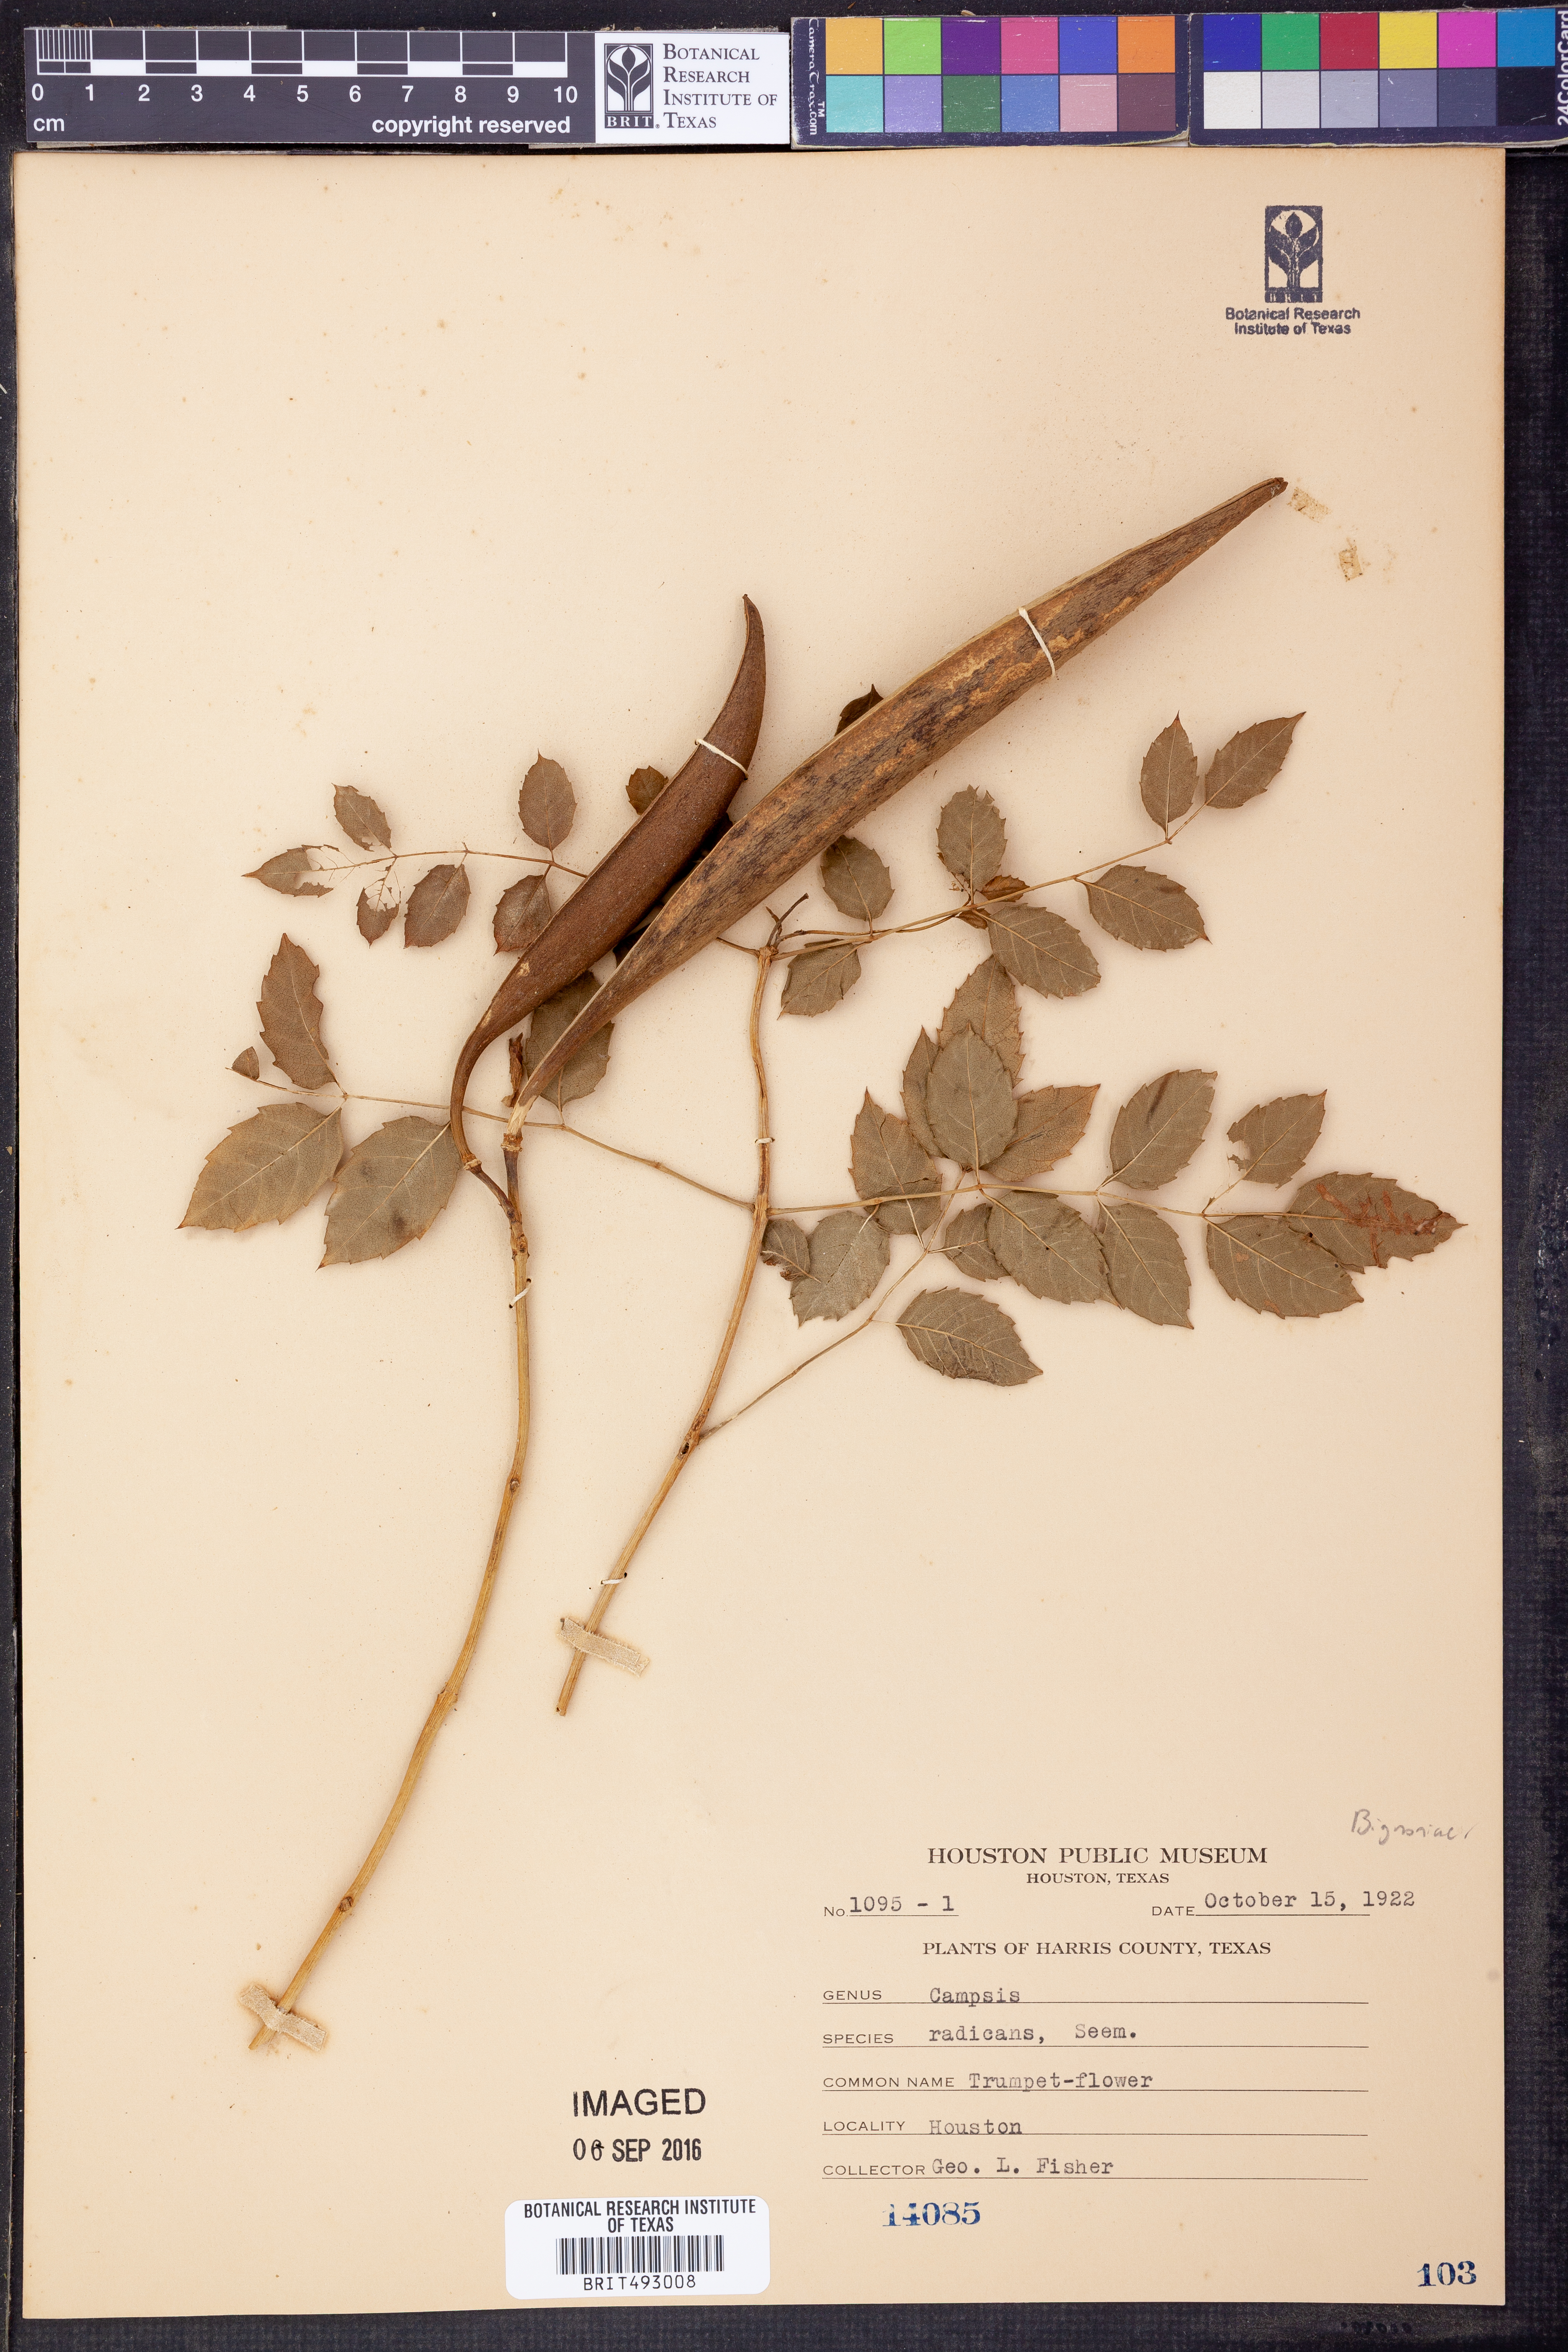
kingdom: Plantae
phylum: Tracheophyta
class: Magnoliopsida
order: Lamiales
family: Bignoniaceae
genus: Campsis
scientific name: Campsis radicans
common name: Trumpet-creeper
